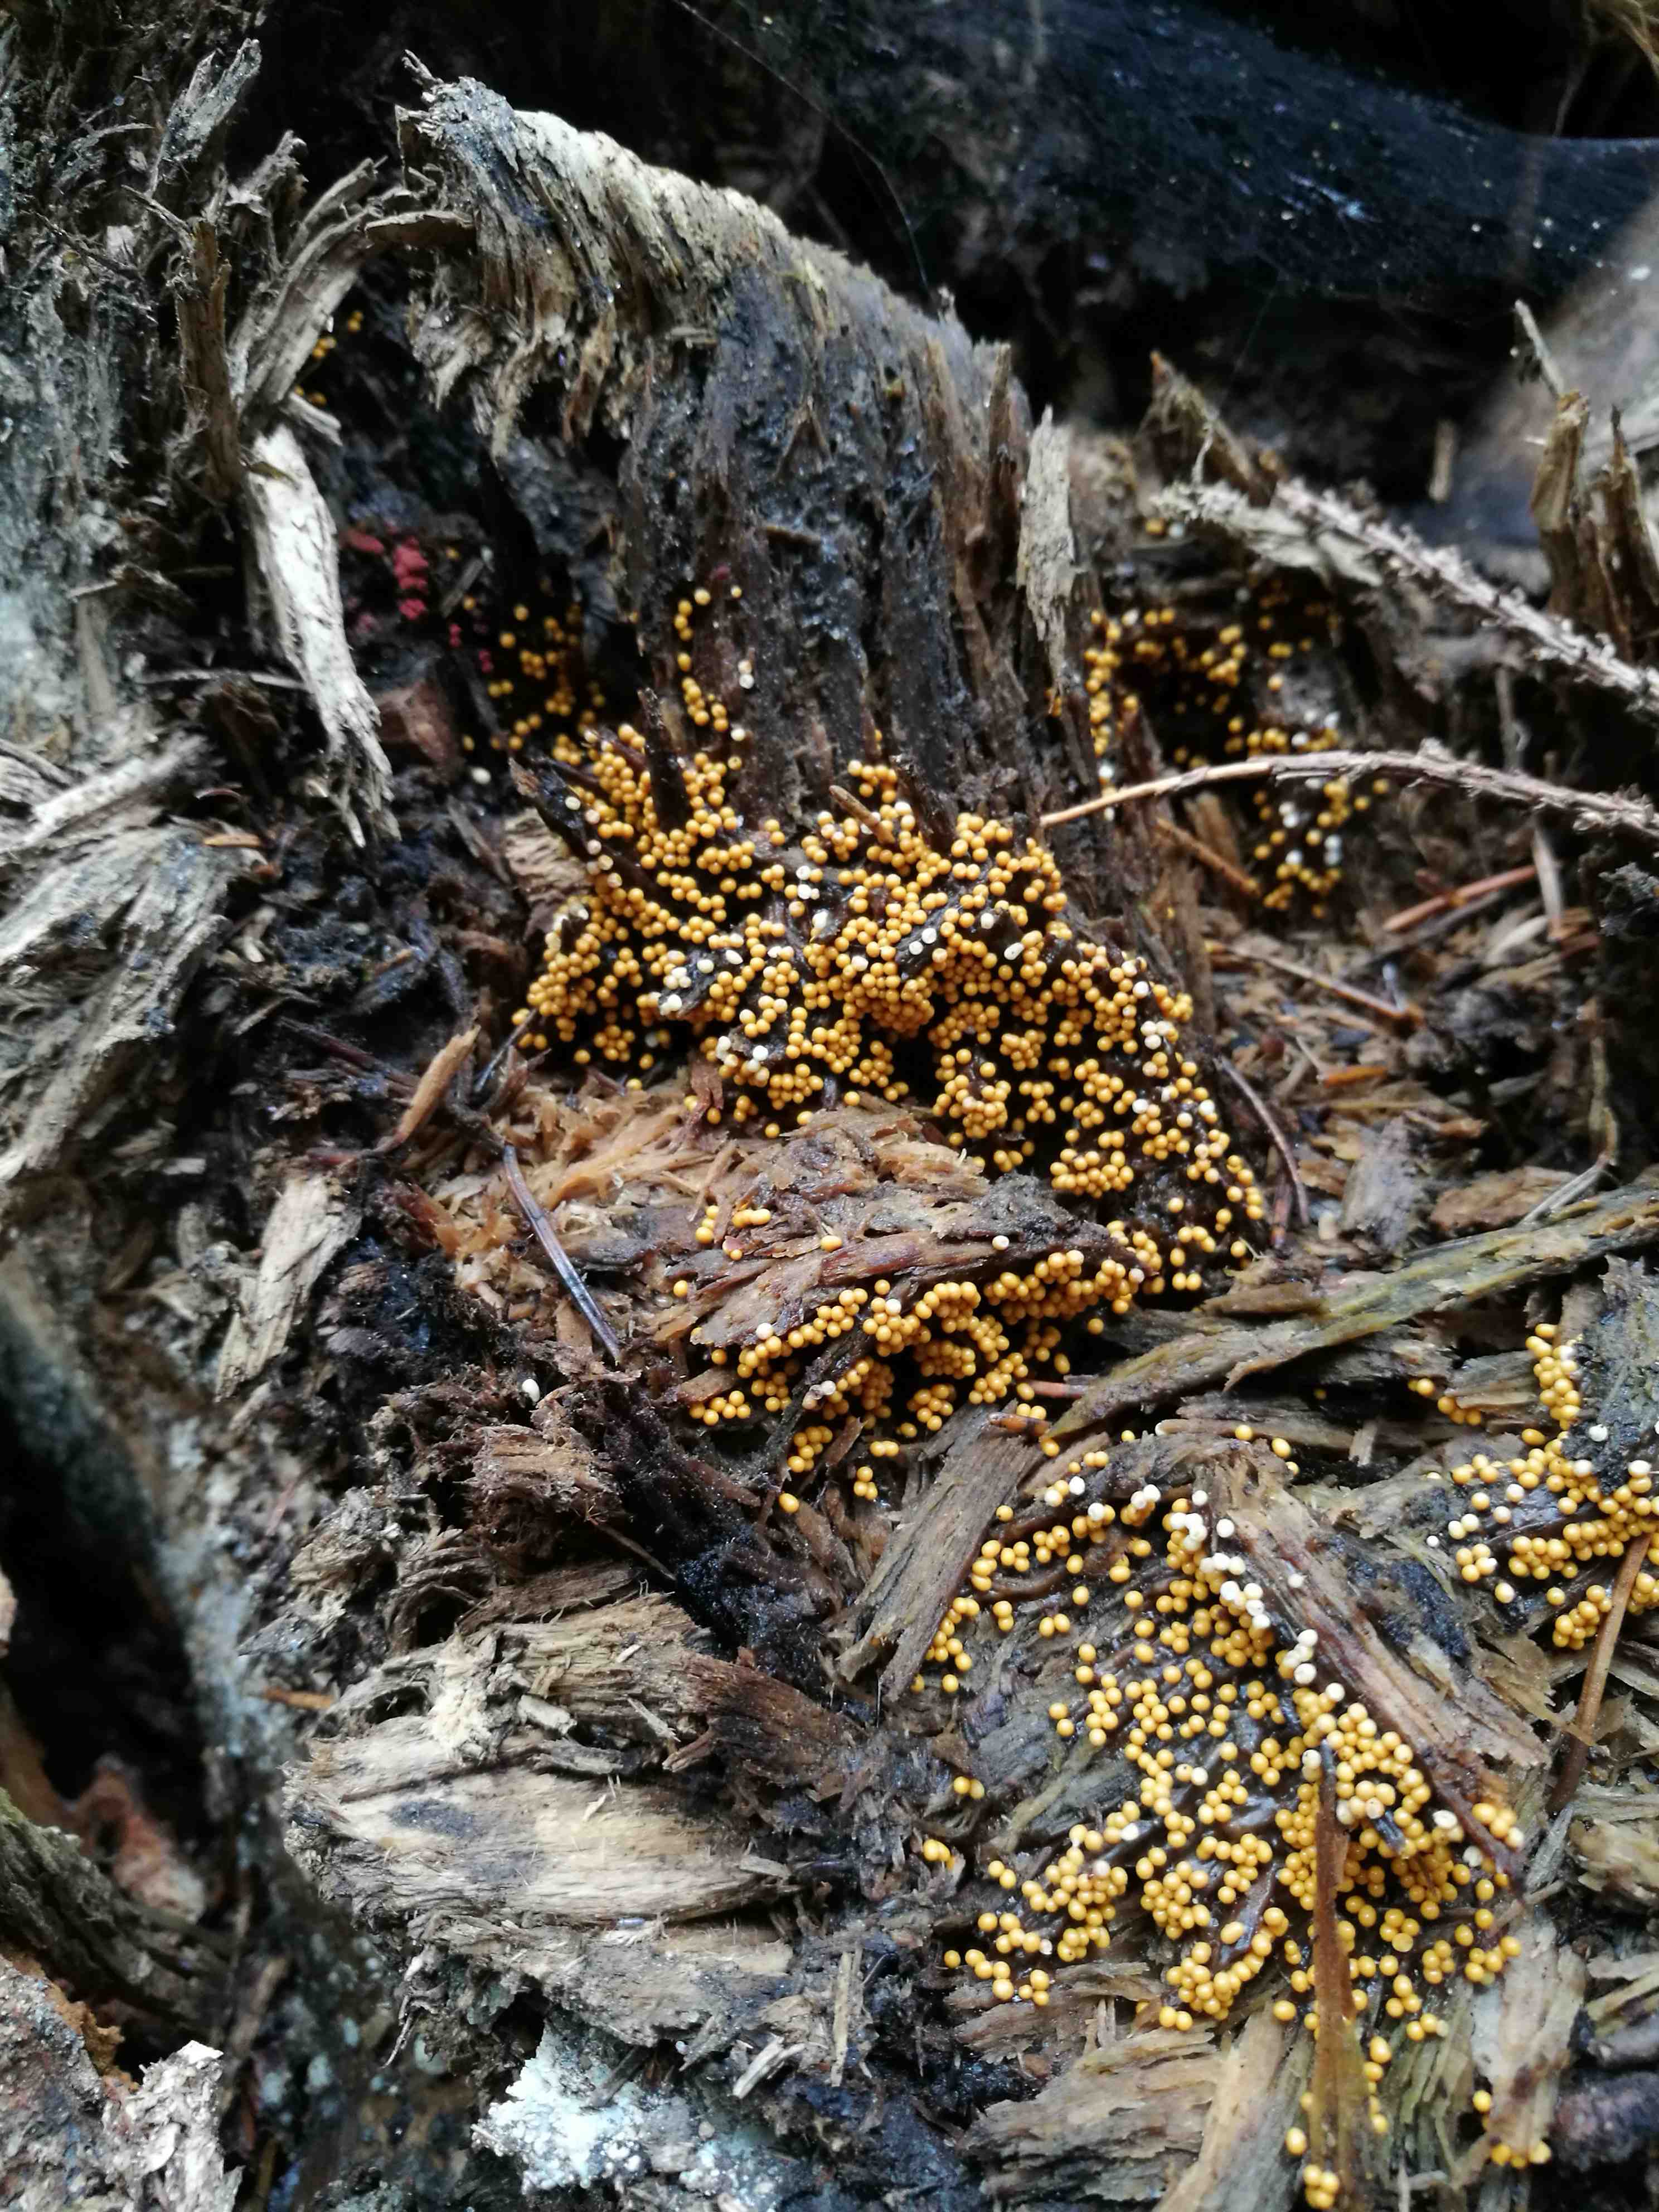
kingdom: Protozoa
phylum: Mycetozoa
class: Myxomycetes
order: Trichiales
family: Trichiaceae
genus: Trichia
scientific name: Trichia
